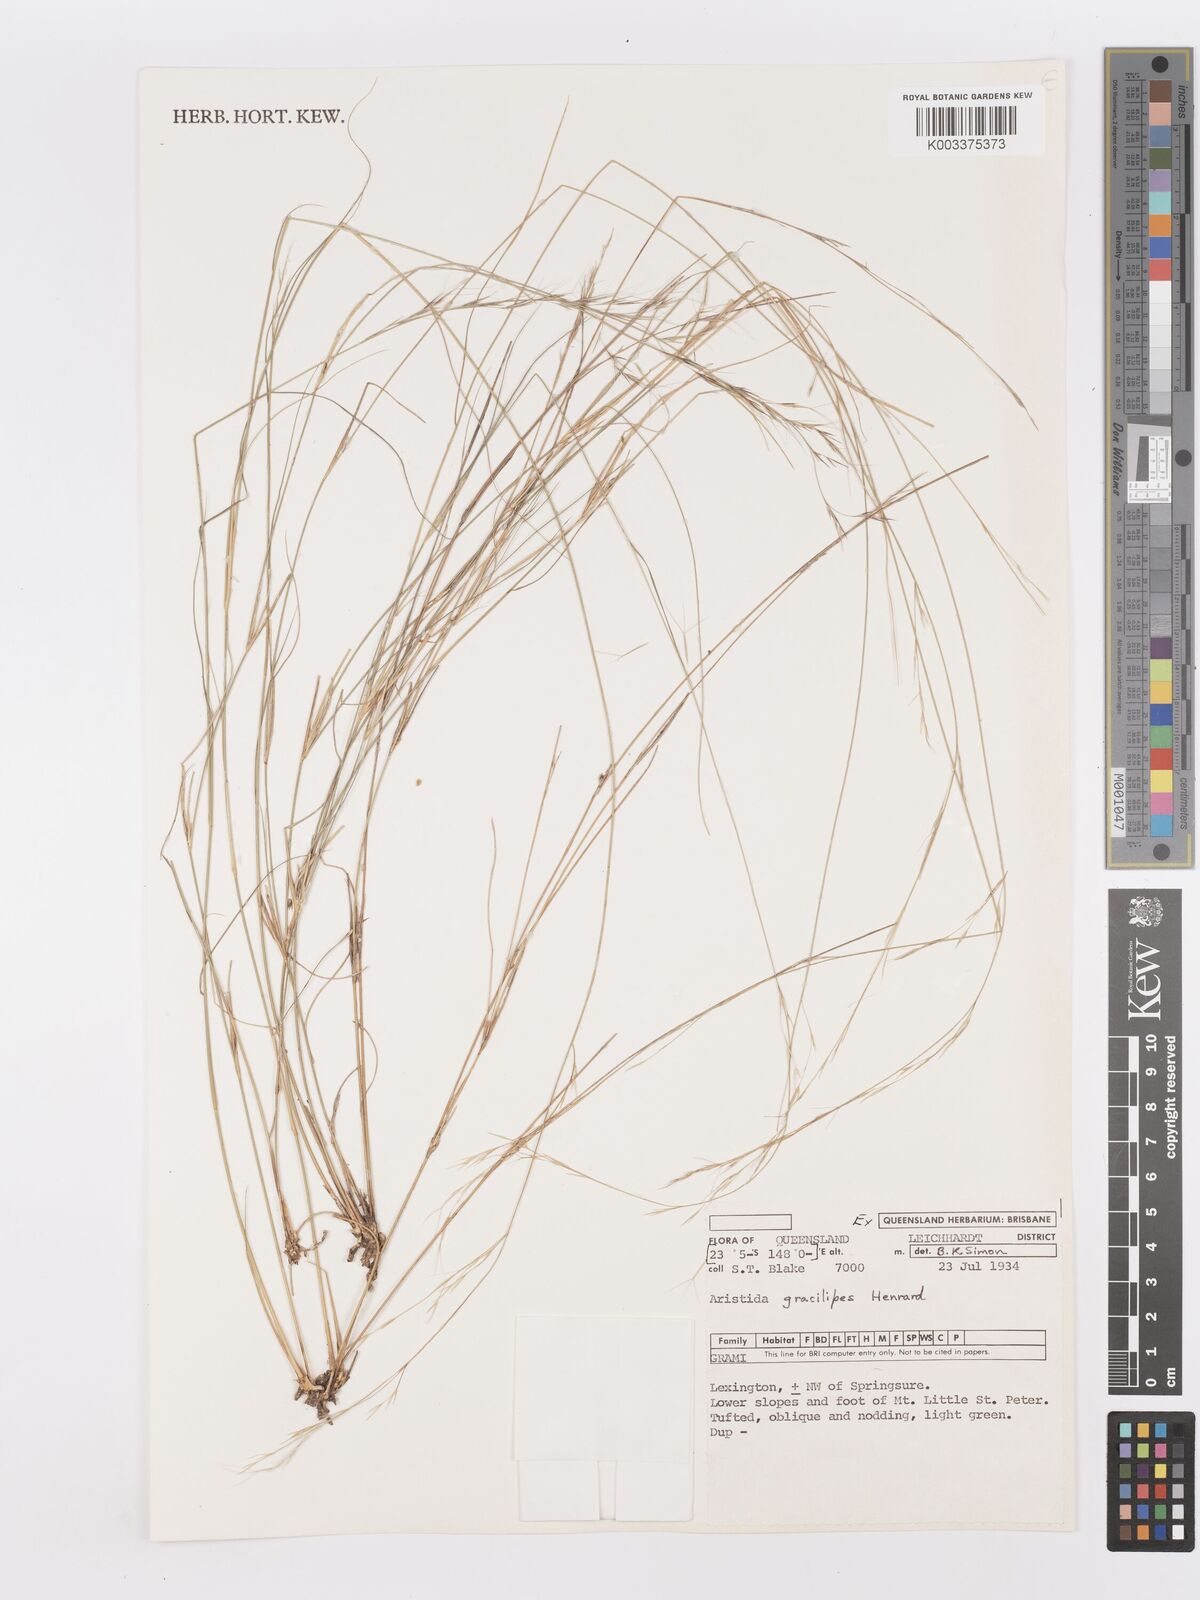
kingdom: Plantae
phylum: Tracheophyta
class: Liliopsida
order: Poales
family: Poaceae
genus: Aristida
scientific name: Aristida gracilipes
